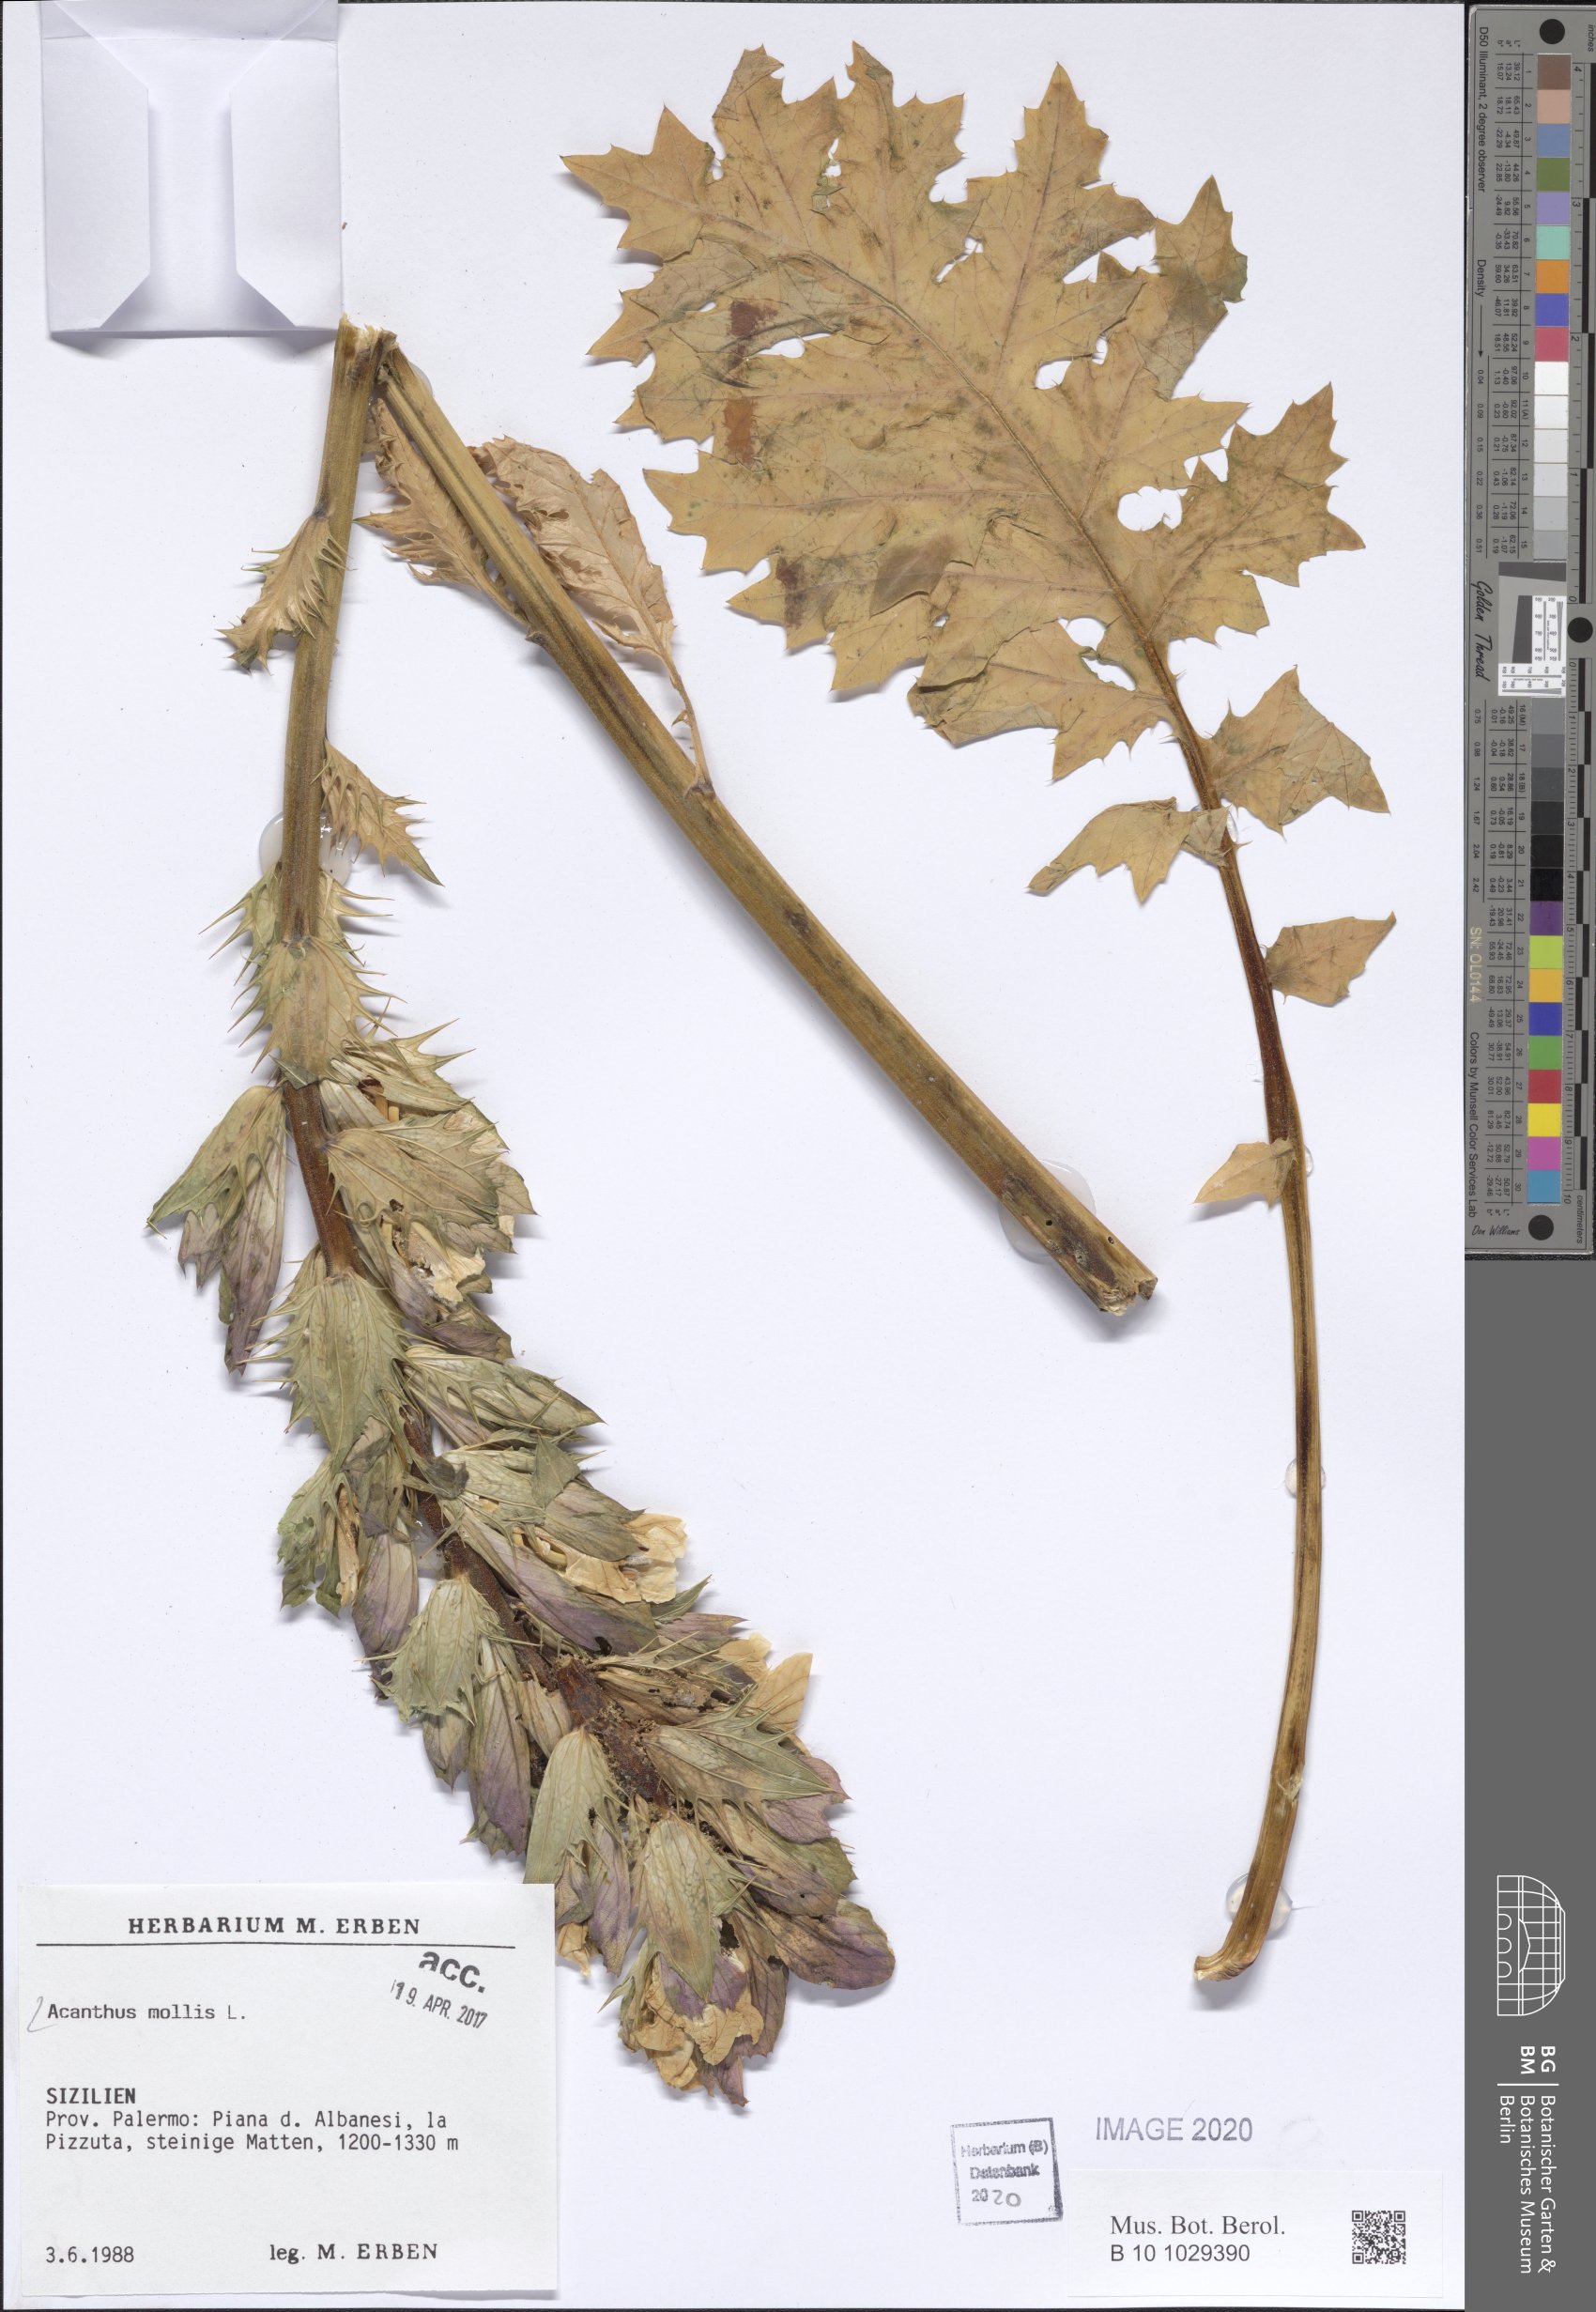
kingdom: Plantae
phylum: Tracheophyta
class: Magnoliopsida
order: Lamiales
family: Acanthaceae
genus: Acanthus
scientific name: Acanthus mollis
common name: Bear's-breech
